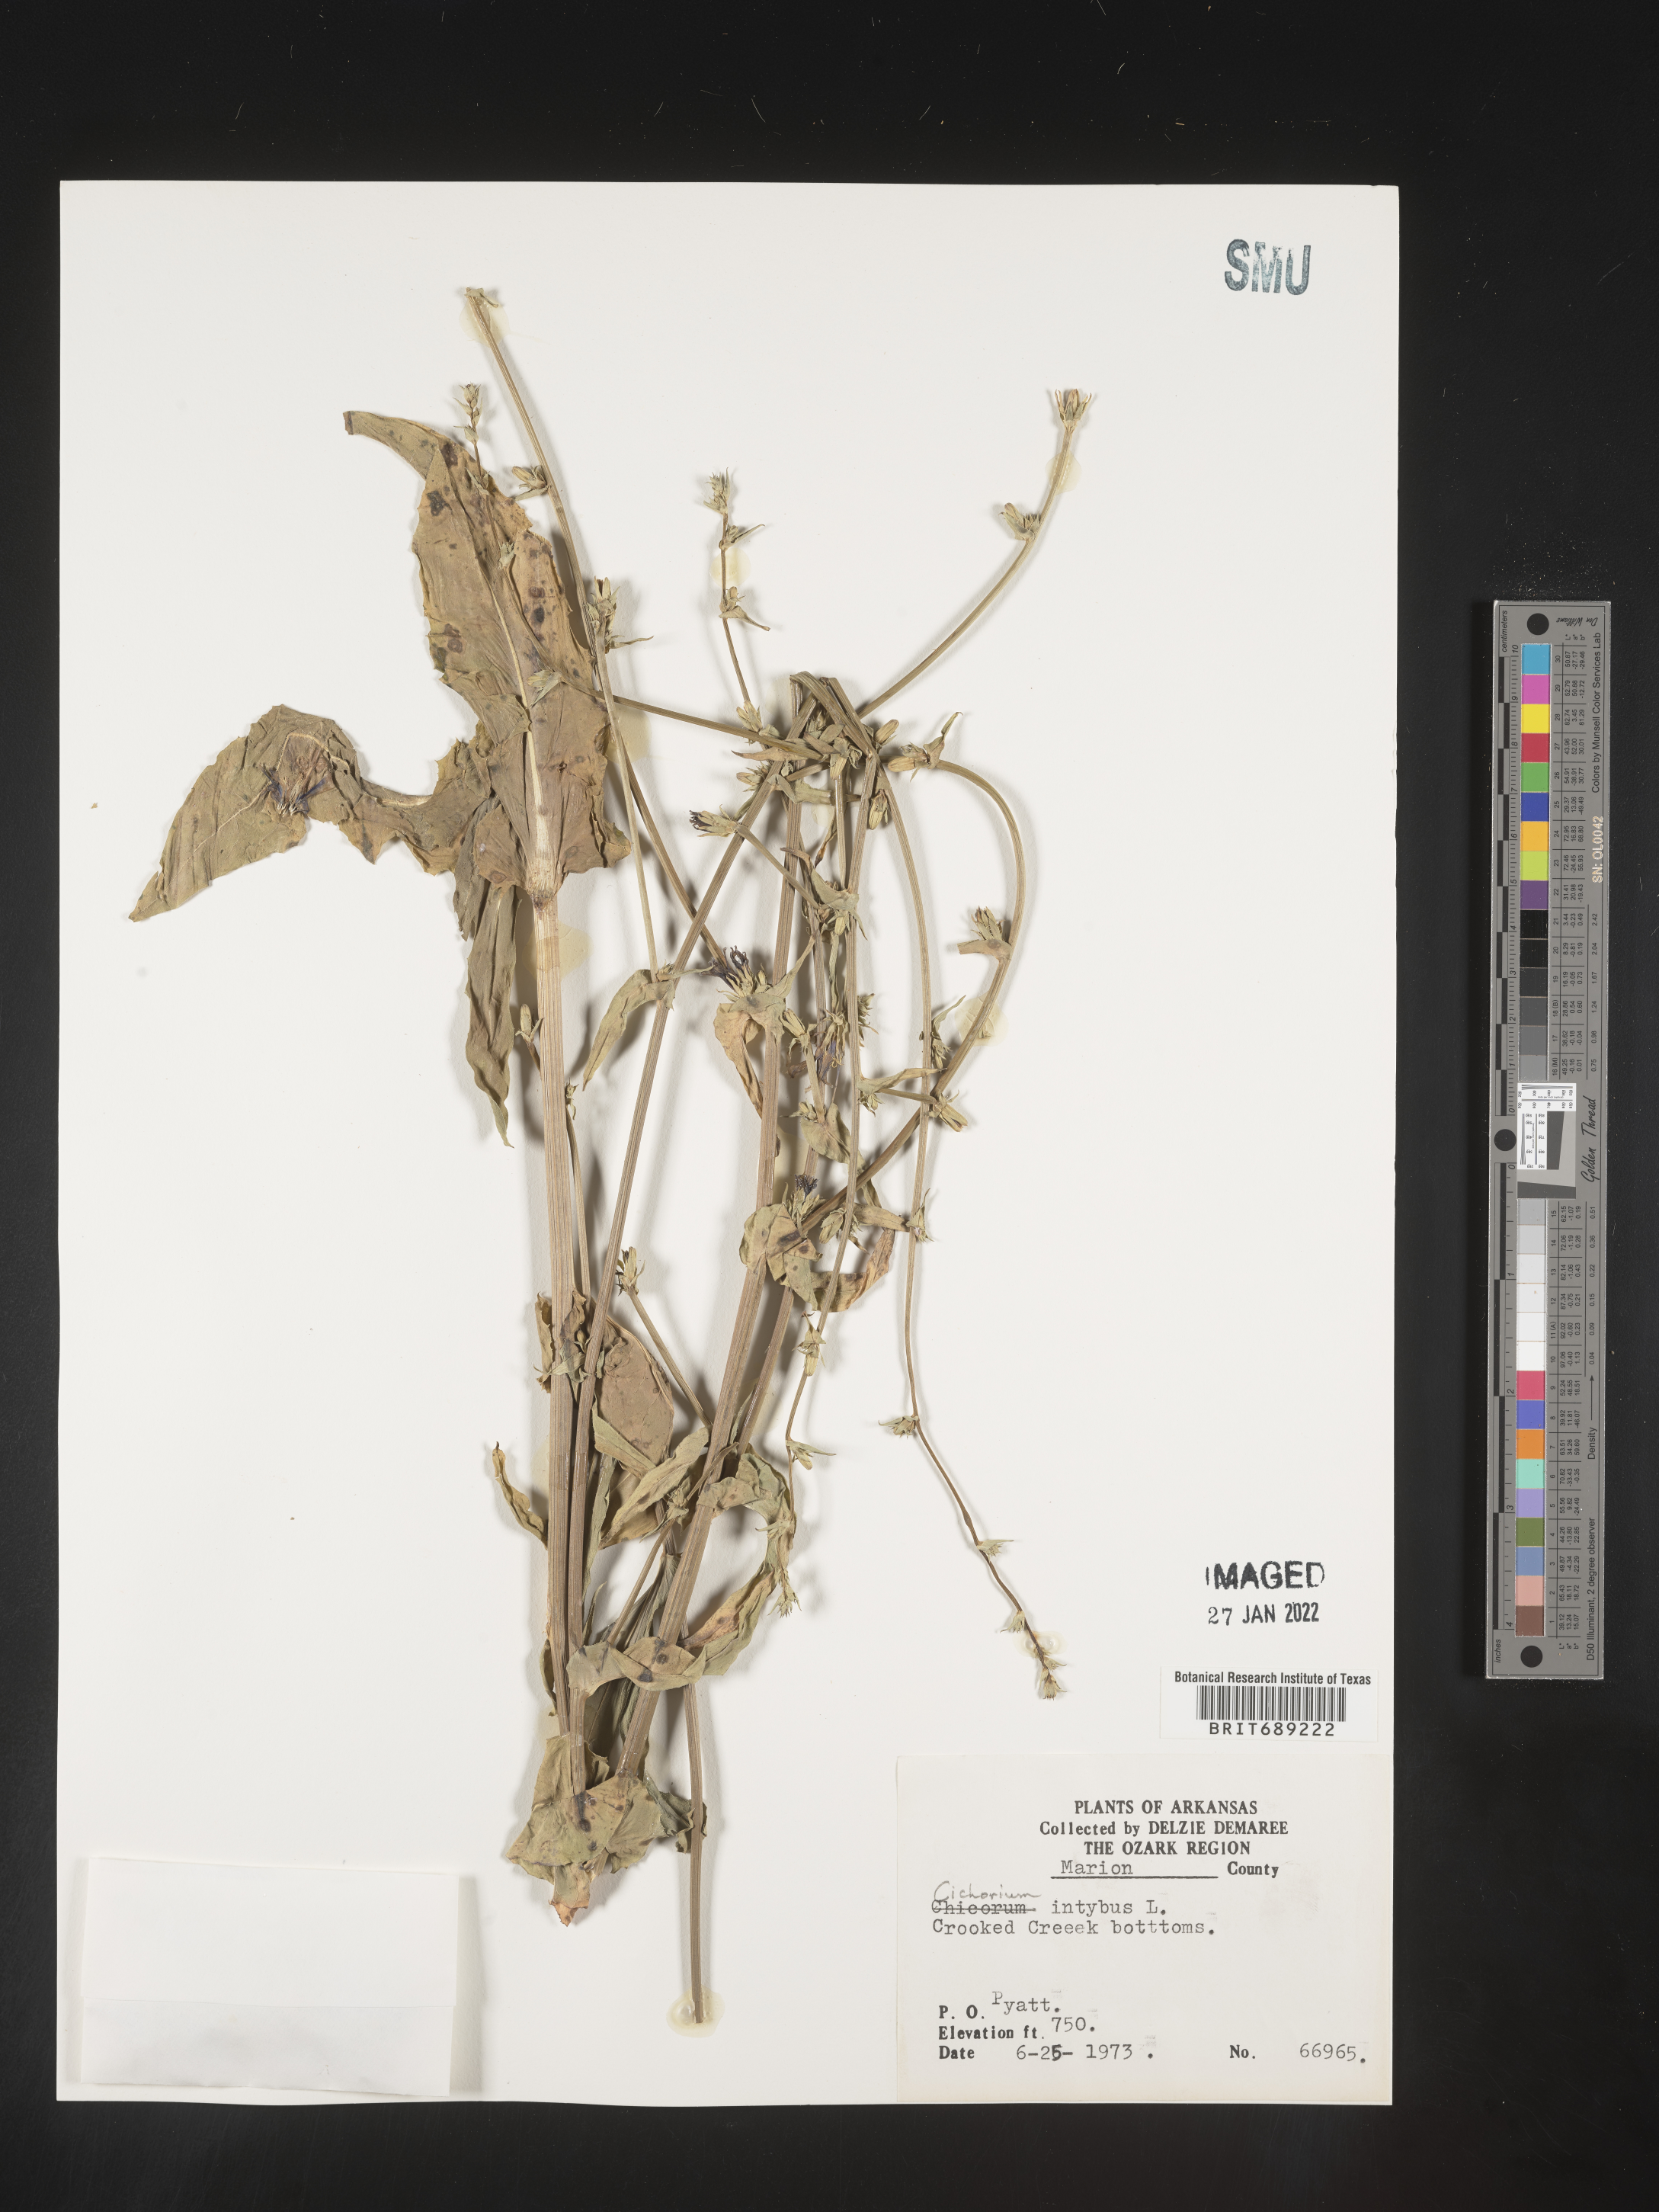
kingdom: Plantae
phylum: Tracheophyta
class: Magnoliopsida
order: Asterales
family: Asteraceae
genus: Cichorium
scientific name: Cichorium intybus
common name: Chicory
